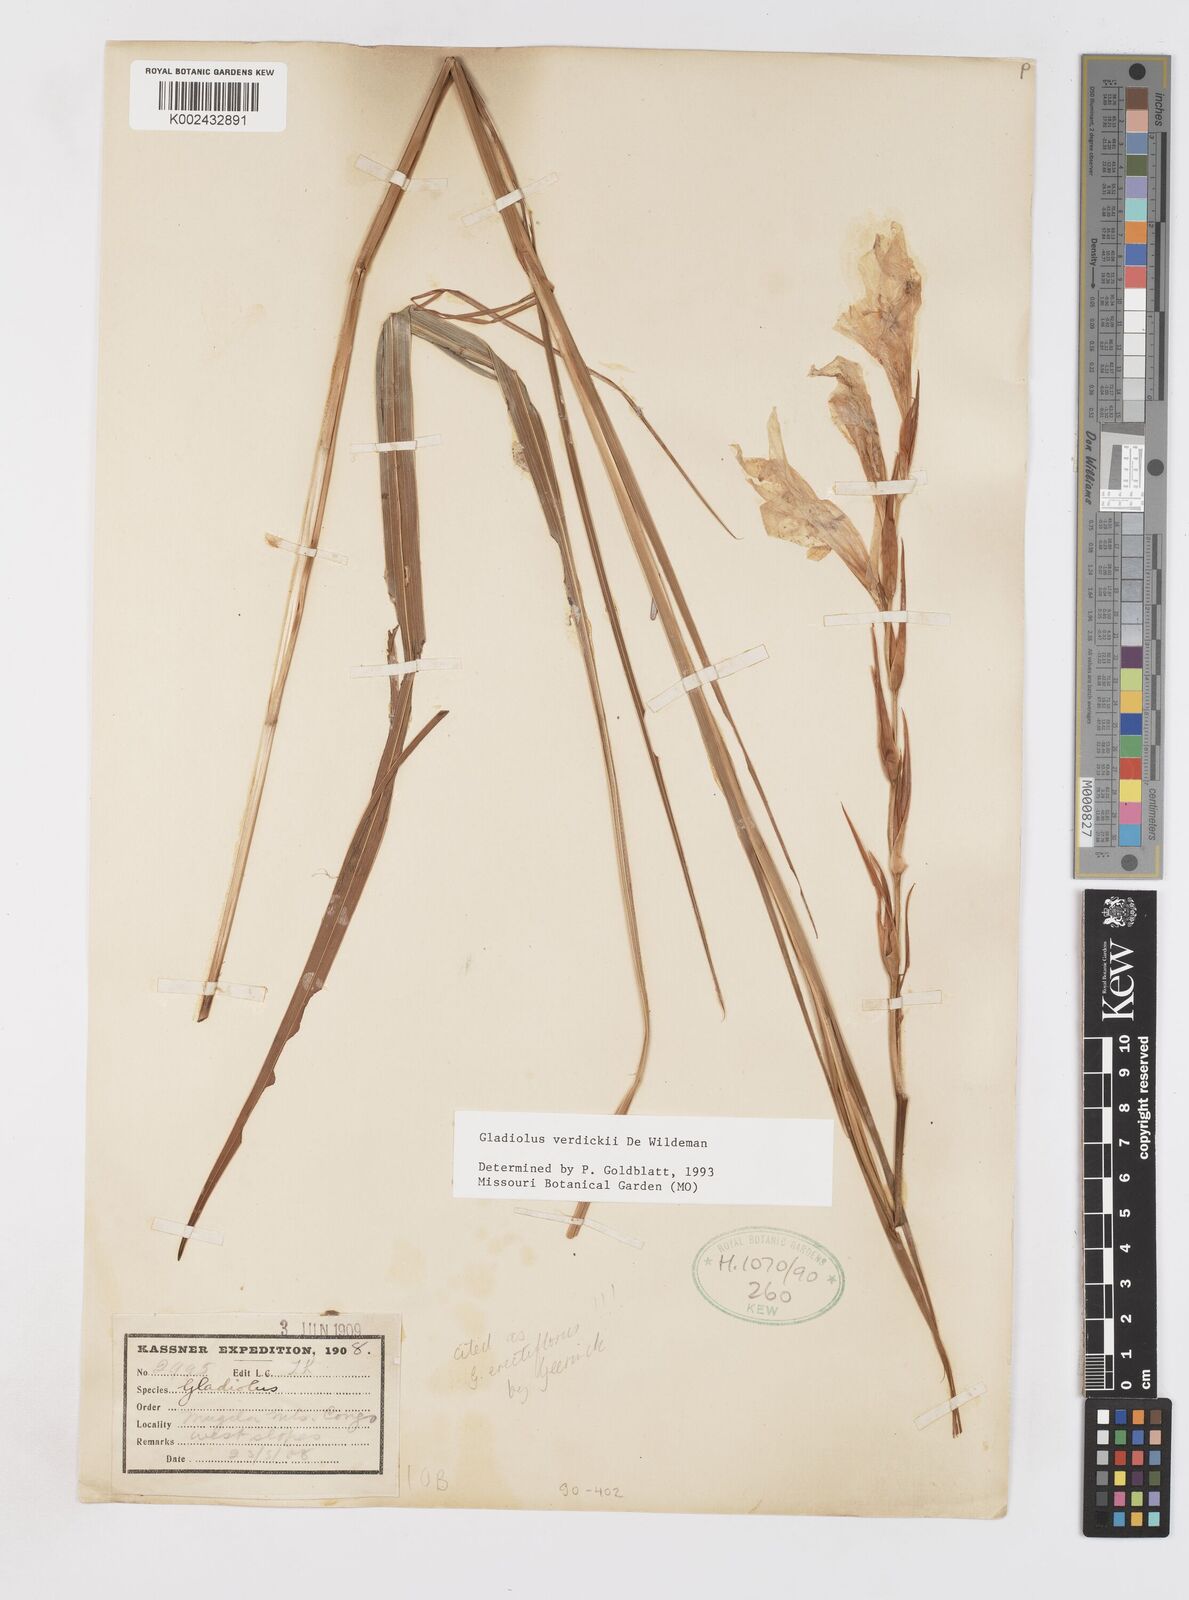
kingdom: Plantae
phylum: Tracheophyta
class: Liliopsida
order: Asparagales
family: Iridaceae
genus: Gladiolus
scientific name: Gladiolus verdickii
